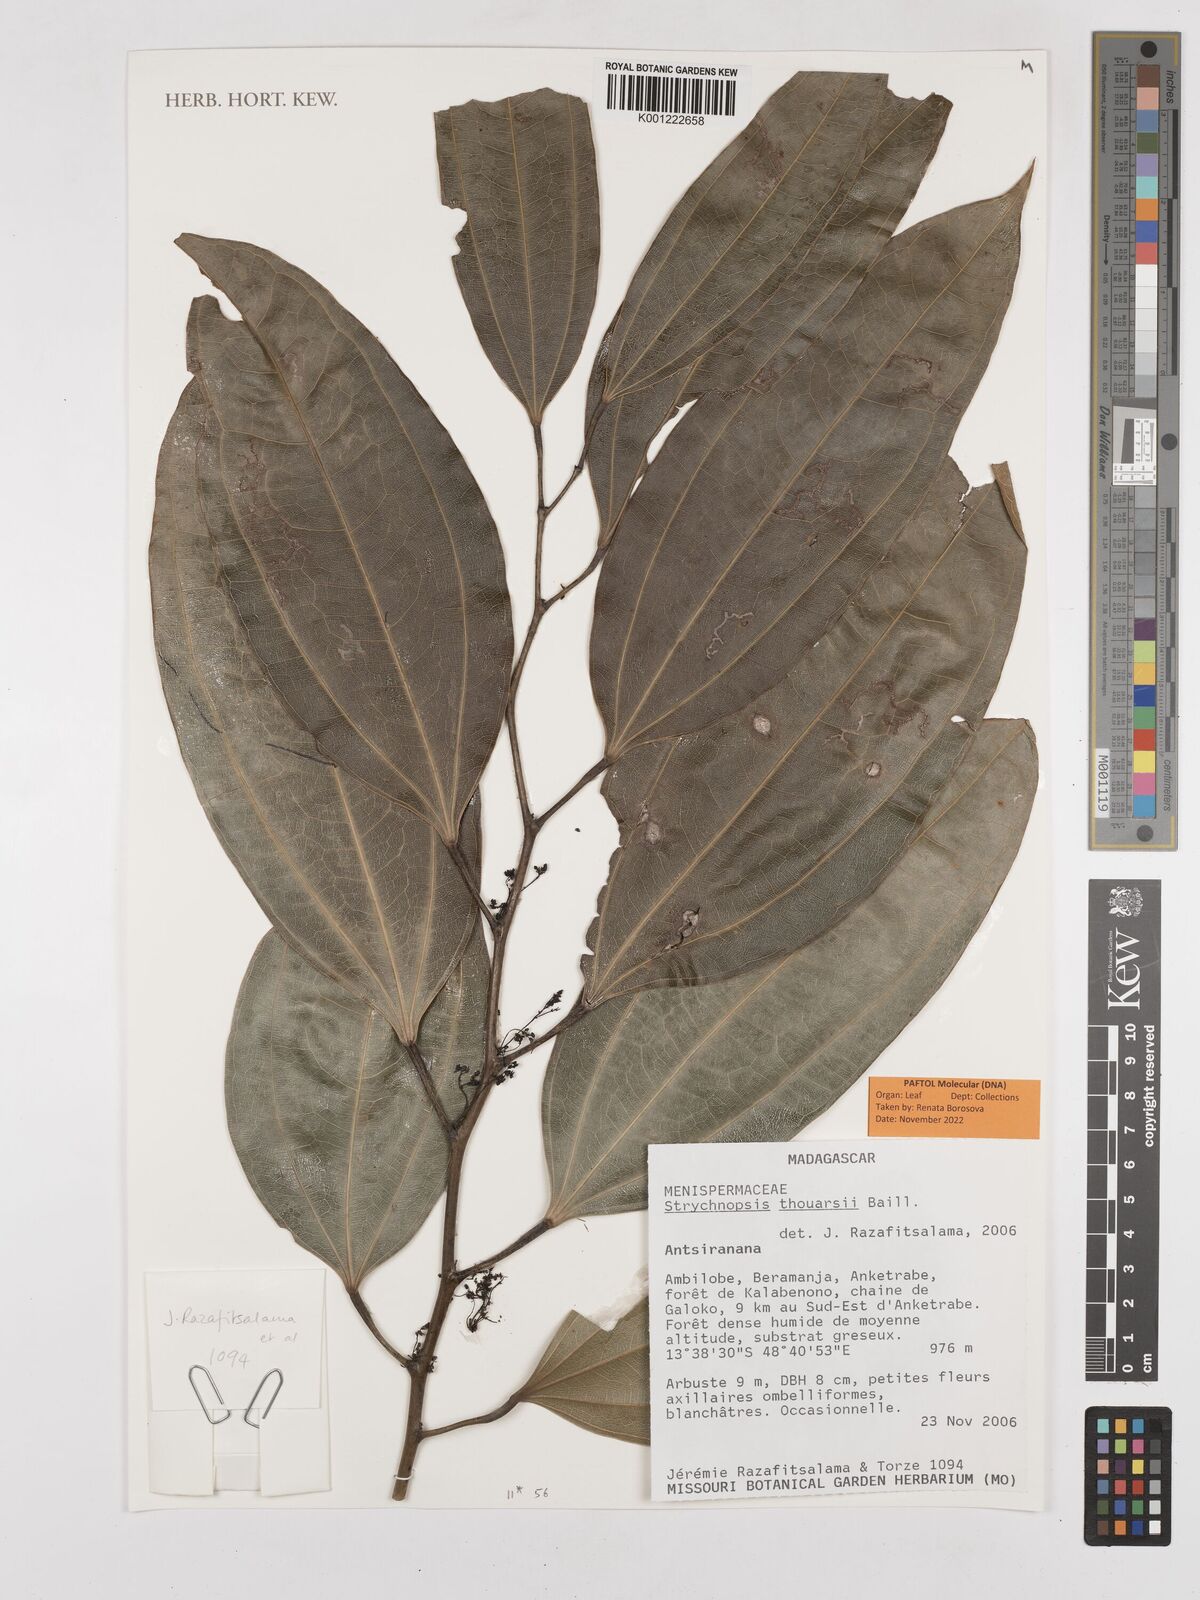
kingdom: Plantae
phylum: Tracheophyta
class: Magnoliopsida
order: Ranunculales
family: Menispermaceae
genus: Strychnopsis
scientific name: Strychnopsis thouarsii
